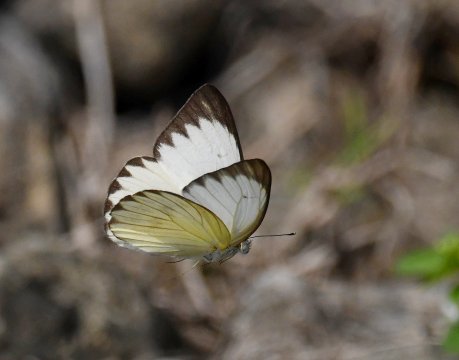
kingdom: Animalia
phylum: Arthropoda
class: Insecta
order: Lepidoptera
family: Pieridae
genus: Ascia
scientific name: Ascia monuste
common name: Great Southern White
